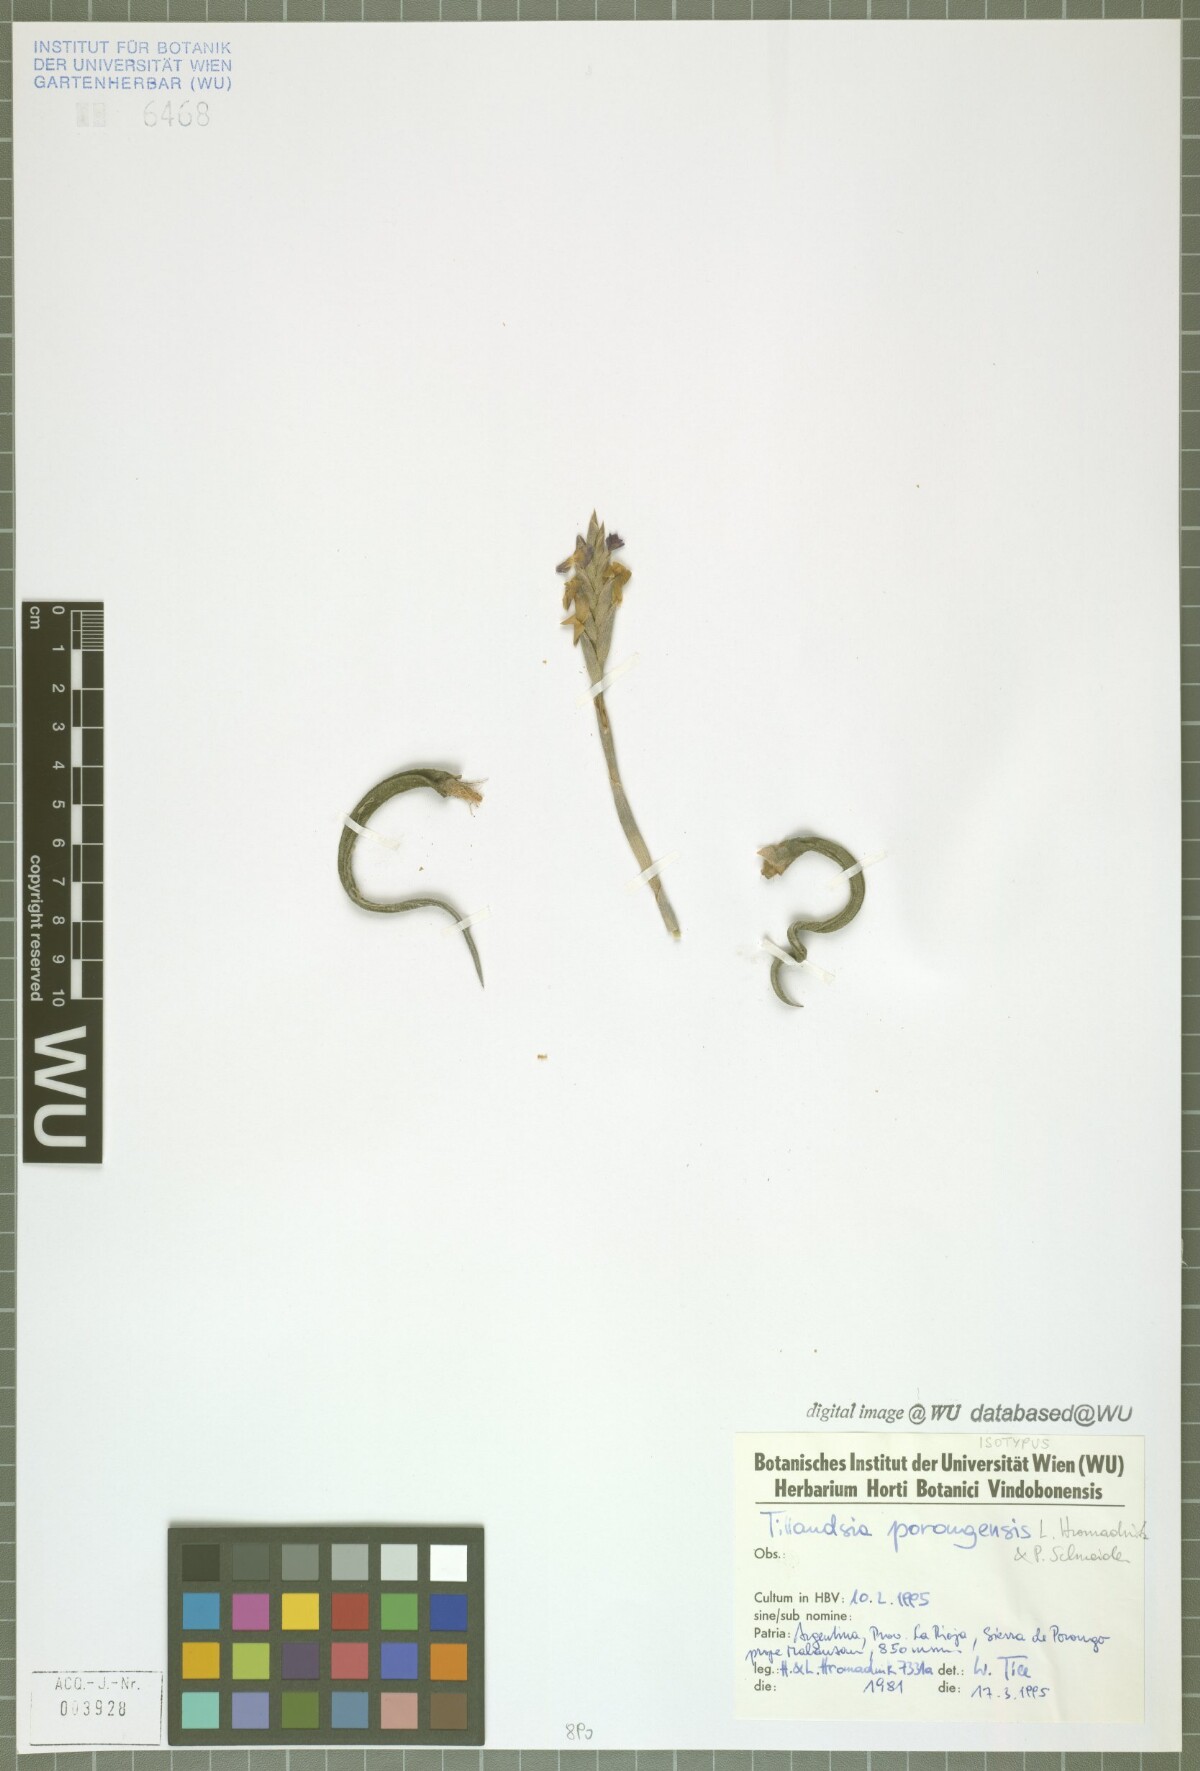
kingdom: Plantae
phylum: Tracheophyta
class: Liliopsida
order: Poales
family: Bromeliaceae
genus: Tillandsia
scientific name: Tillandsia porongoensis
